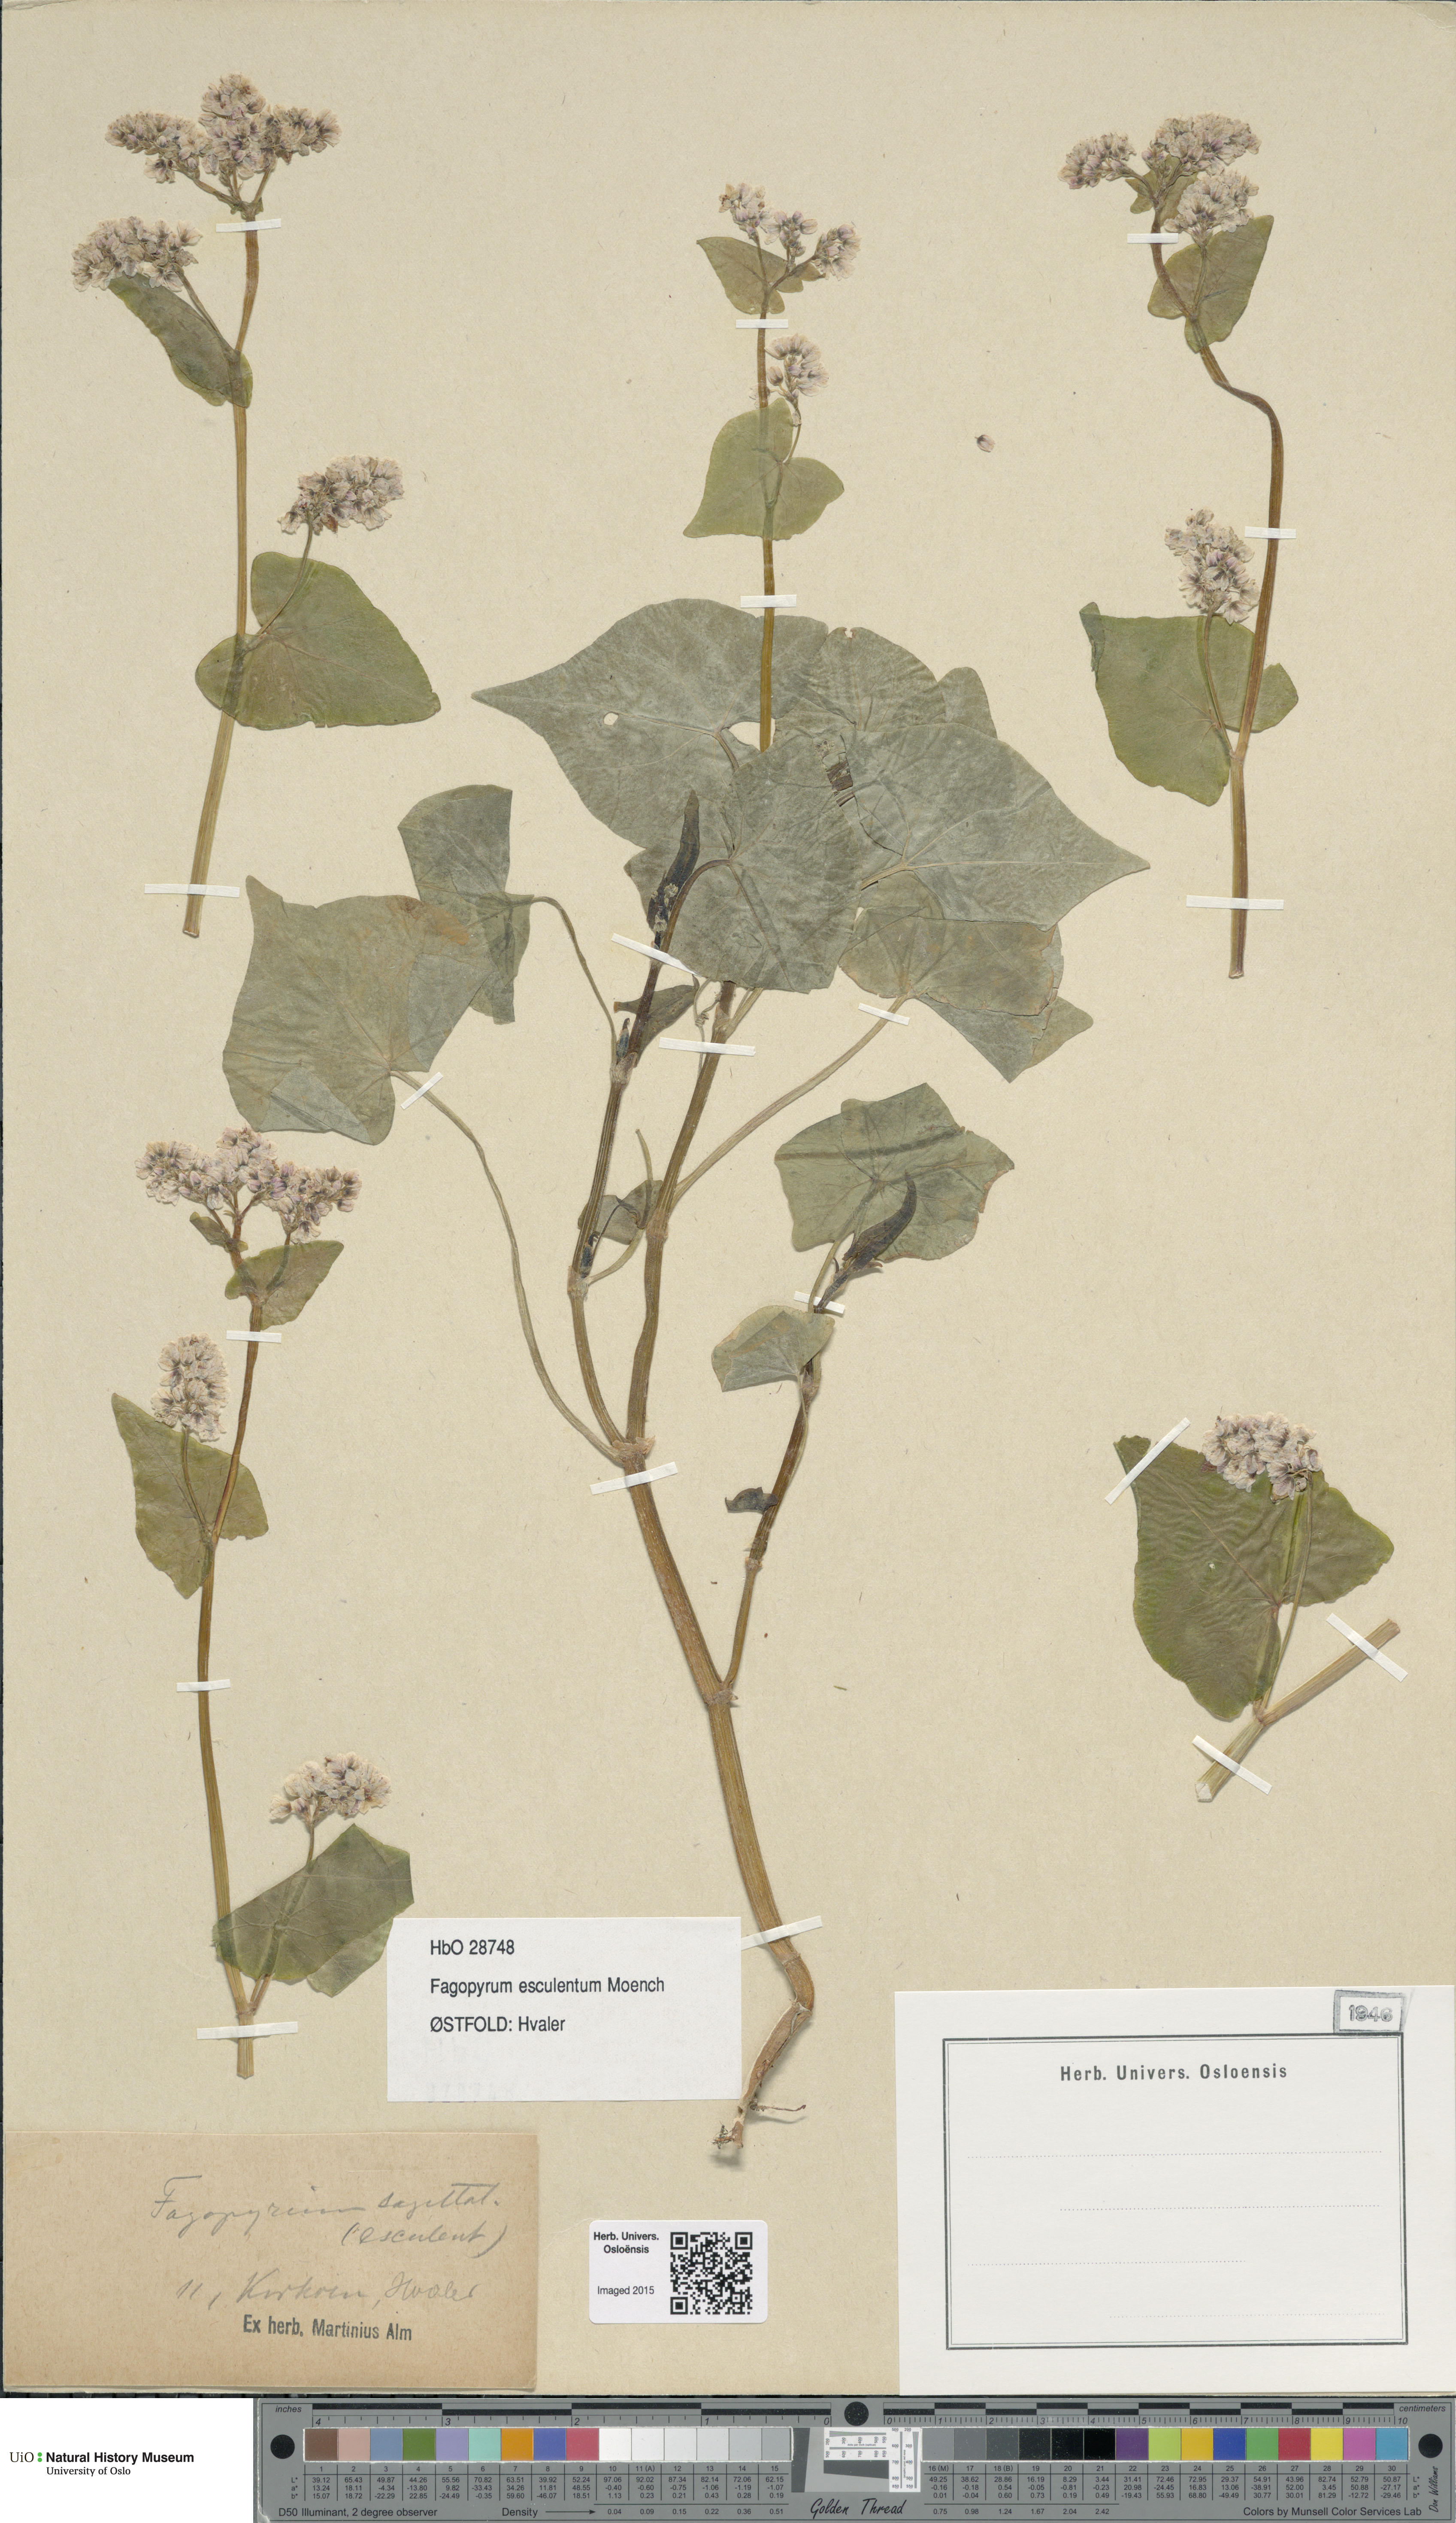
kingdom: Plantae
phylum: Tracheophyta
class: Magnoliopsida
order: Caryophyllales
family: Polygonaceae
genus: Fagopyrum
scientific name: Fagopyrum esculentum
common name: Buckwheat
